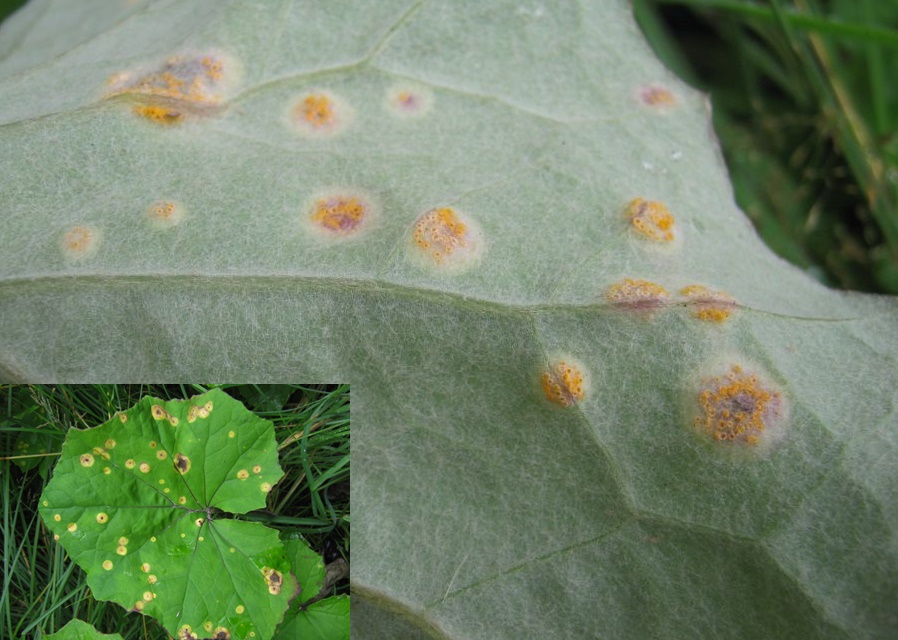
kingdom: Fungi
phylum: Basidiomycota
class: Pucciniomycetes
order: Pucciniales
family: Pucciniaceae
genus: Puccinia
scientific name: Puccinia poarum
